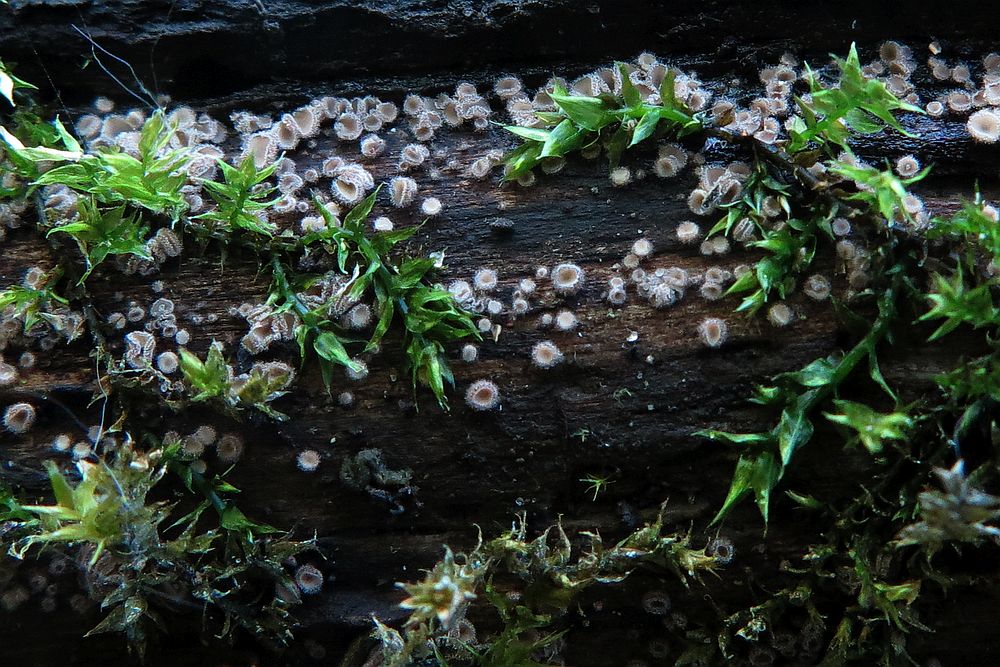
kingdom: Fungi
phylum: Ascomycota
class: Leotiomycetes
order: Helotiales
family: Solenopeziaceae
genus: Lasiobelonium
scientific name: Lasiobelonium variegatum
